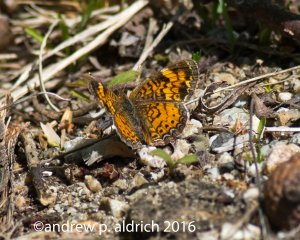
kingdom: Animalia
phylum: Arthropoda
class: Insecta
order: Lepidoptera
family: Nymphalidae
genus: Phyciodes
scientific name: Phyciodes
